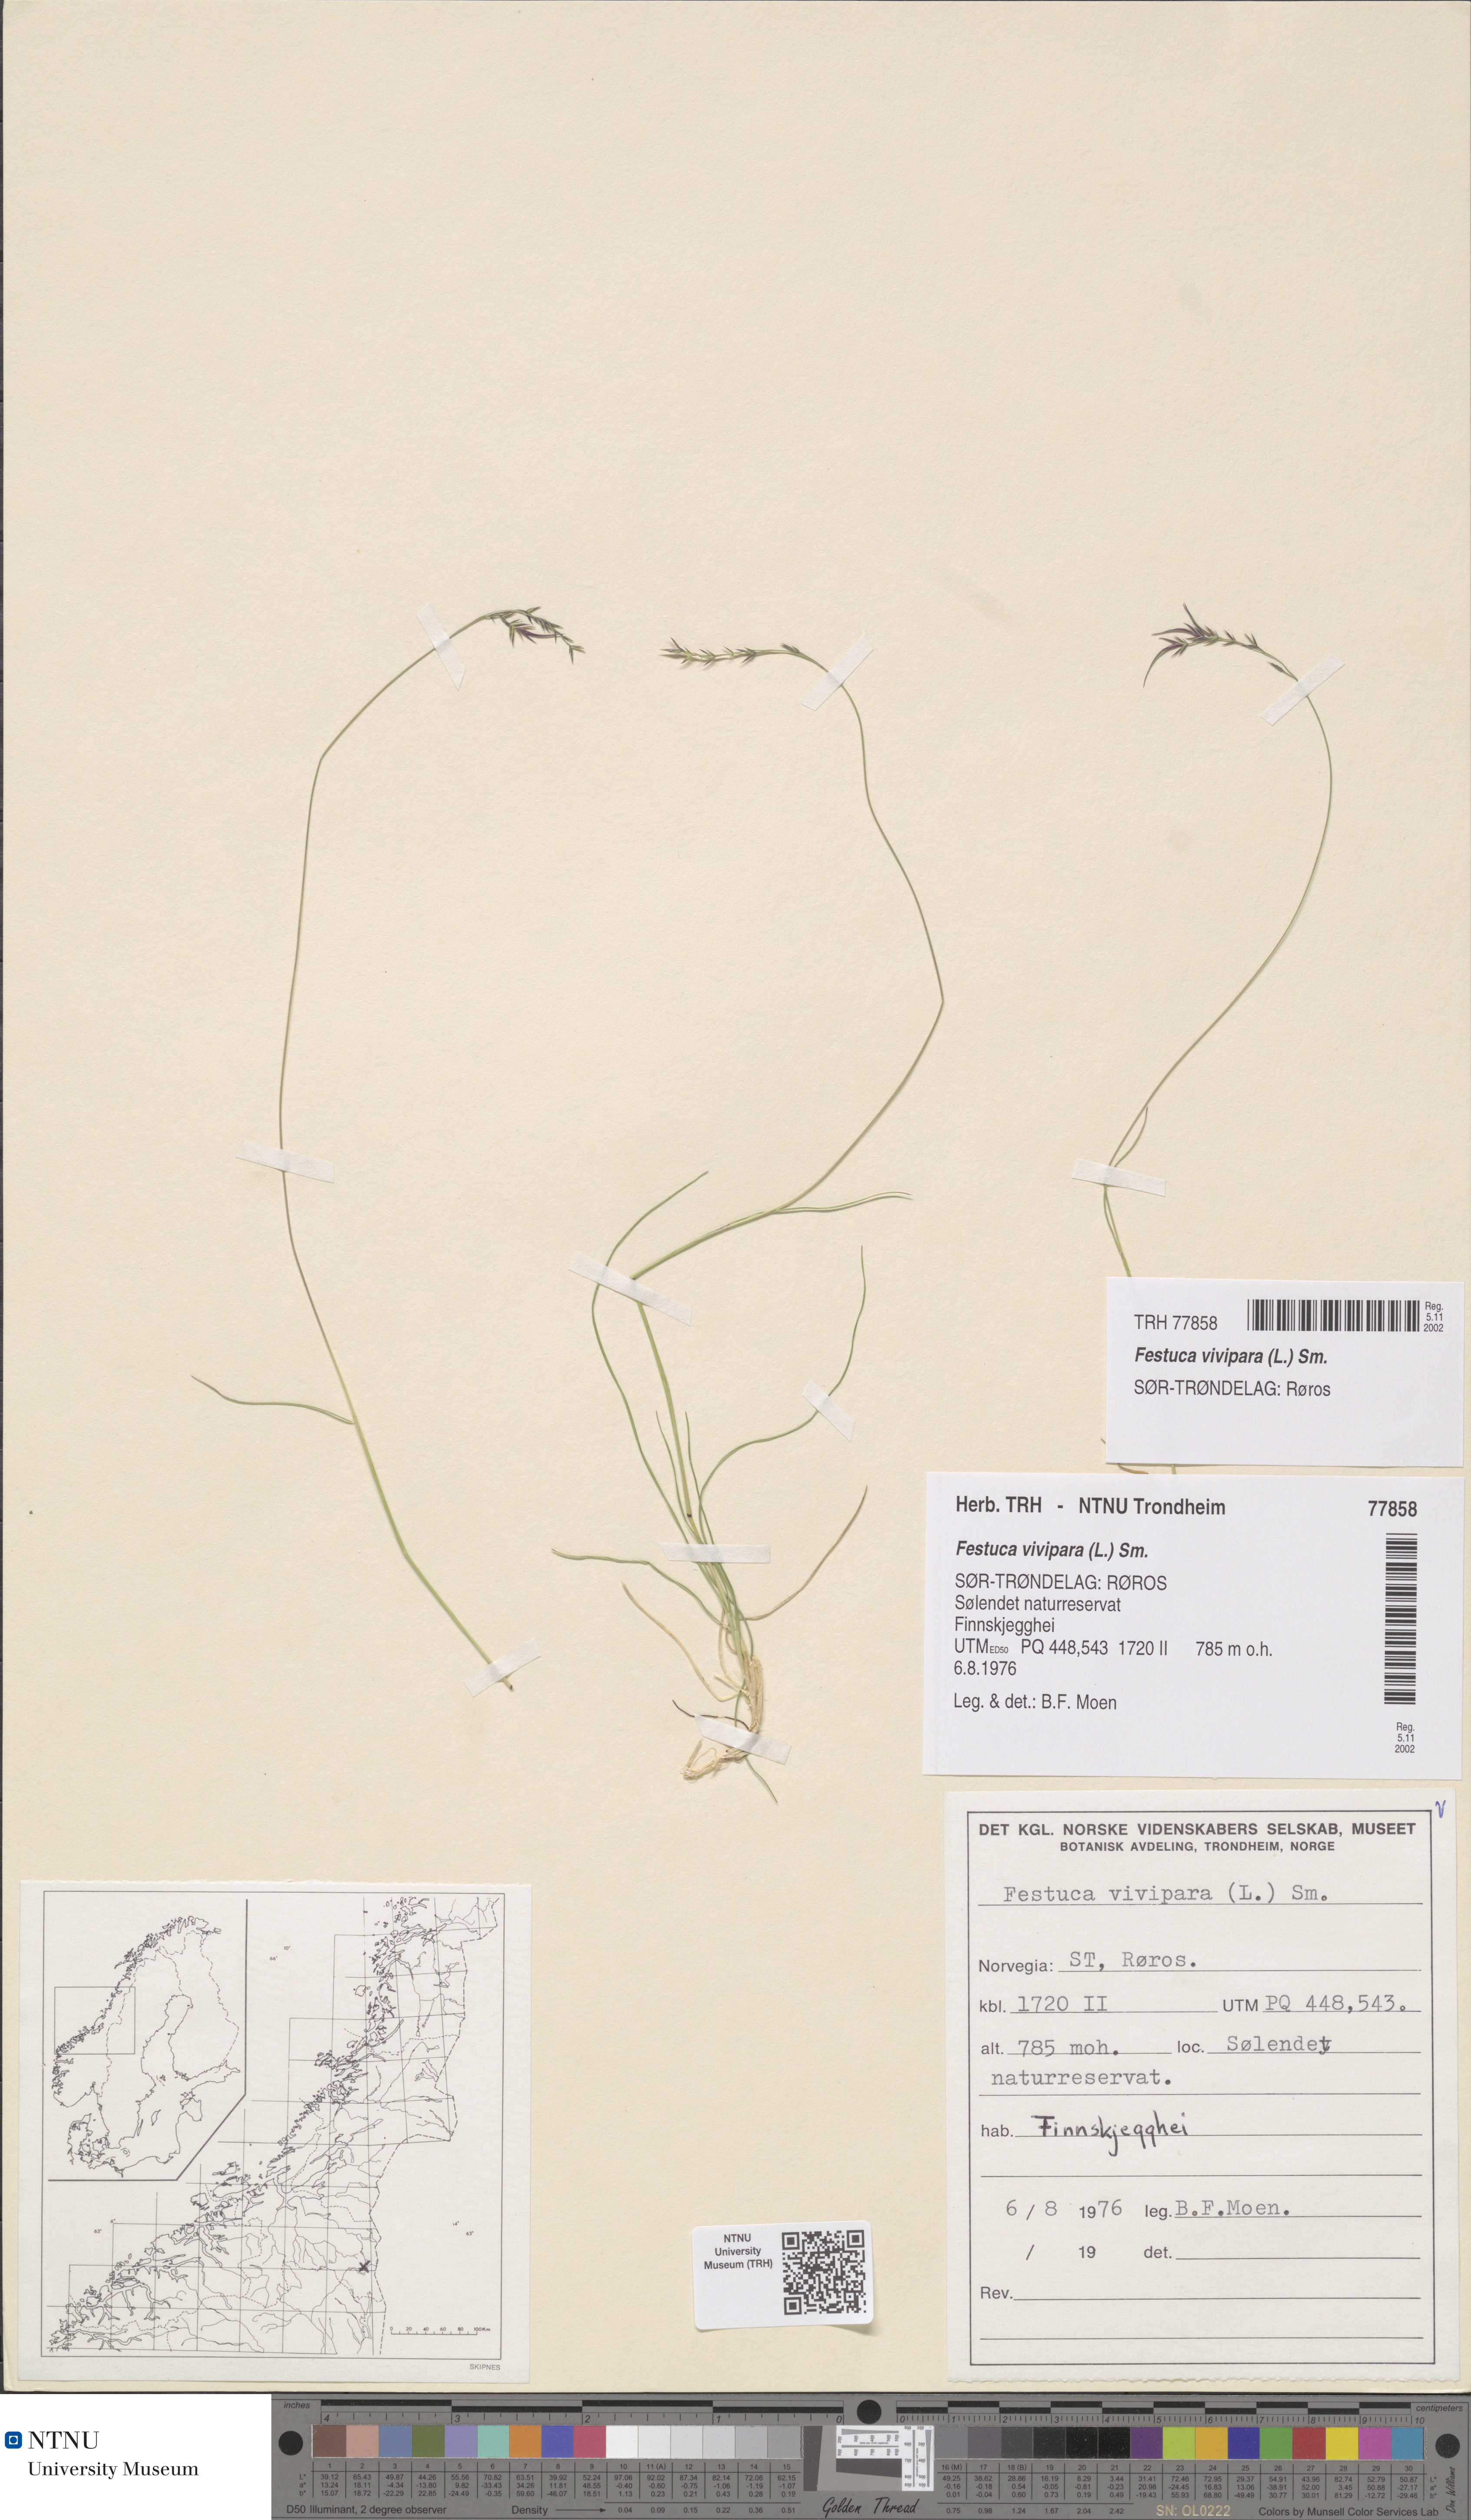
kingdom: Plantae
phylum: Tracheophyta
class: Liliopsida
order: Poales
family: Poaceae
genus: Festuca
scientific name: Festuca vivipara
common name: Viviparous sheep's-fescue
